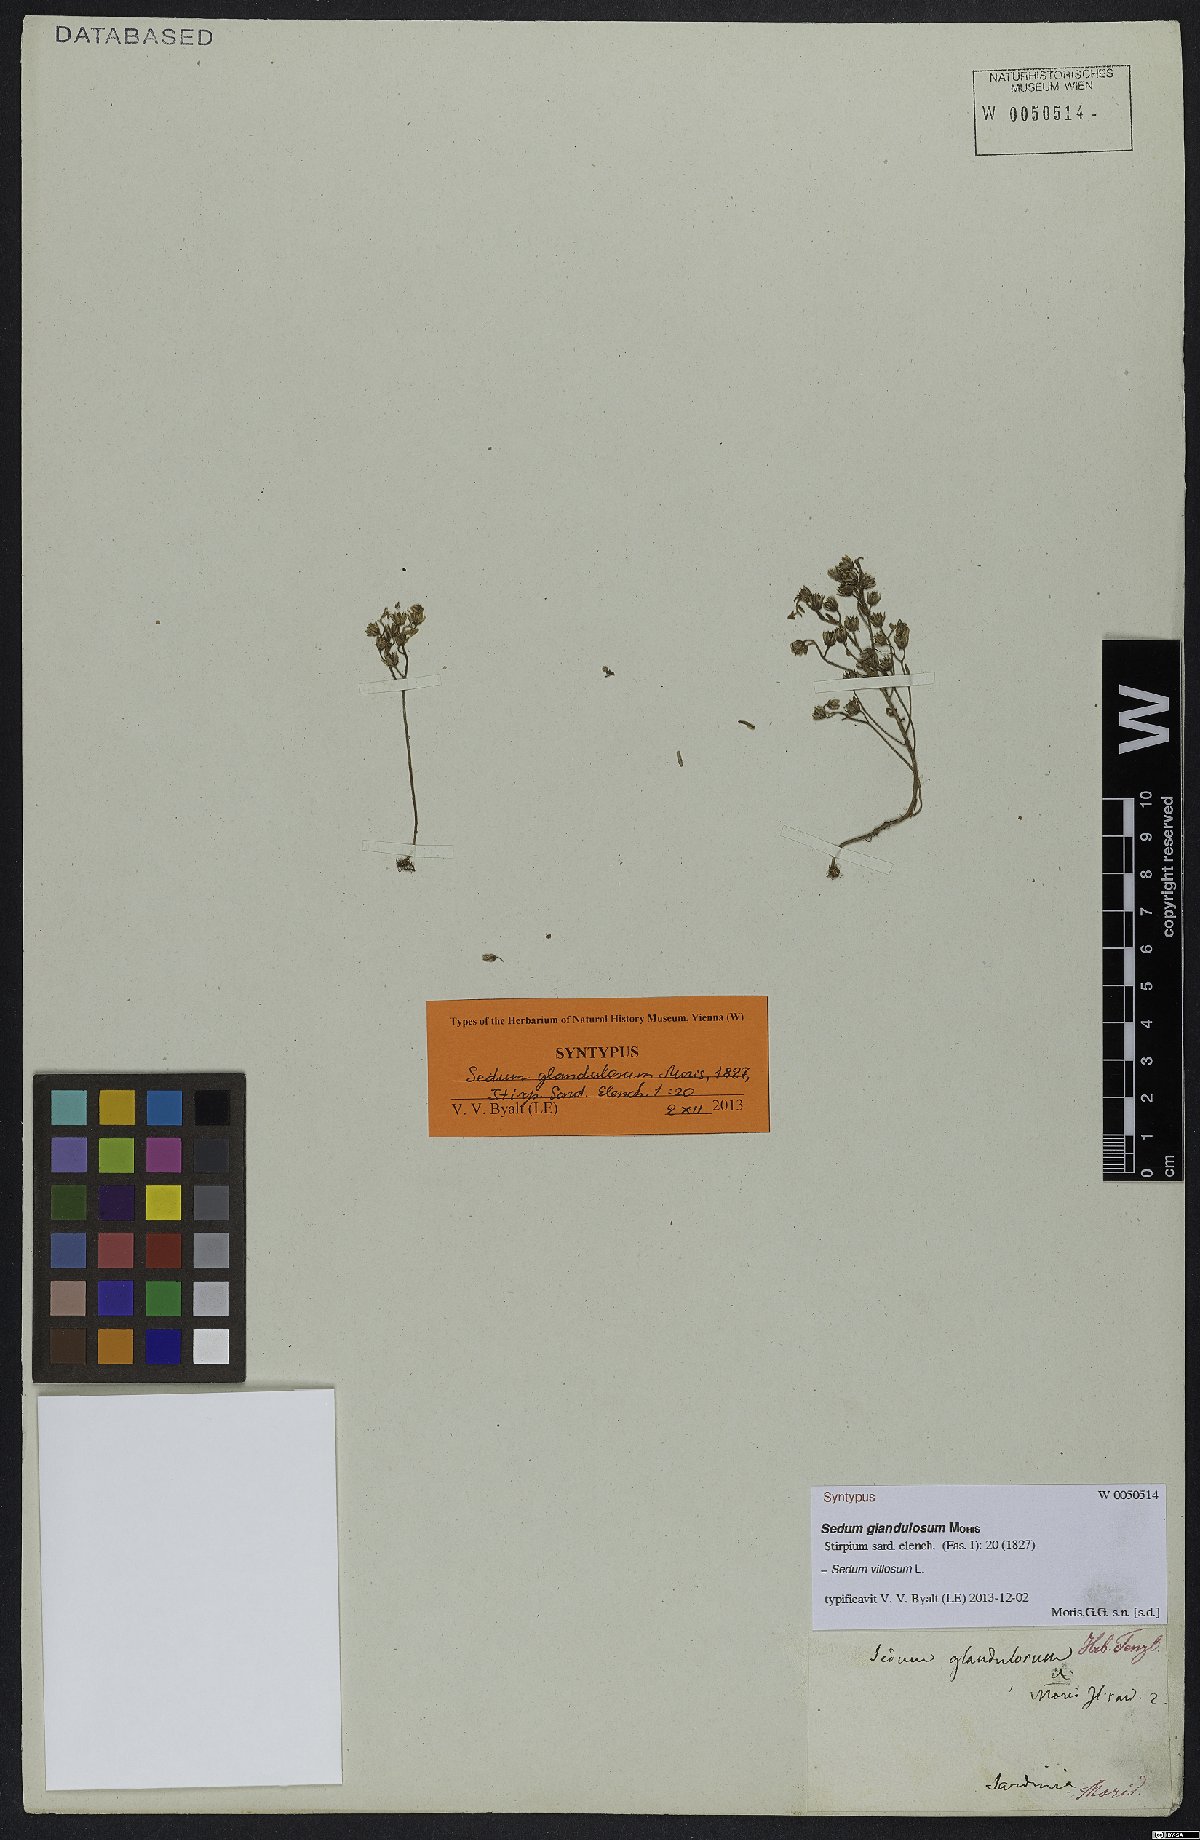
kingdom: Plantae
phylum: Tracheophyta
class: Magnoliopsida
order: Saxifragales
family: Crassulaceae
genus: Sedum
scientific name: Sedum villosum
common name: Hairy stonecrop
